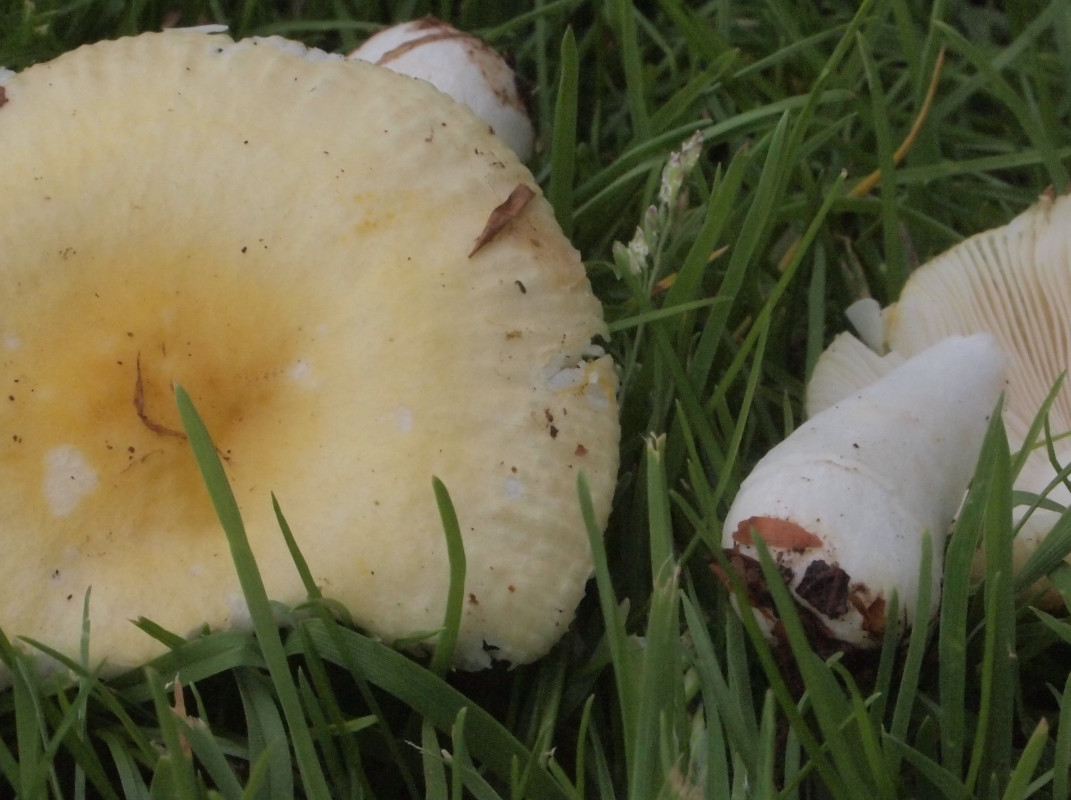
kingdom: Fungi
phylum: Basidiomycota
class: Agaricomycetes
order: Russulales
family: Russulaceae
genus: Russula
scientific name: Russula solaris
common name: sol-skørhat
